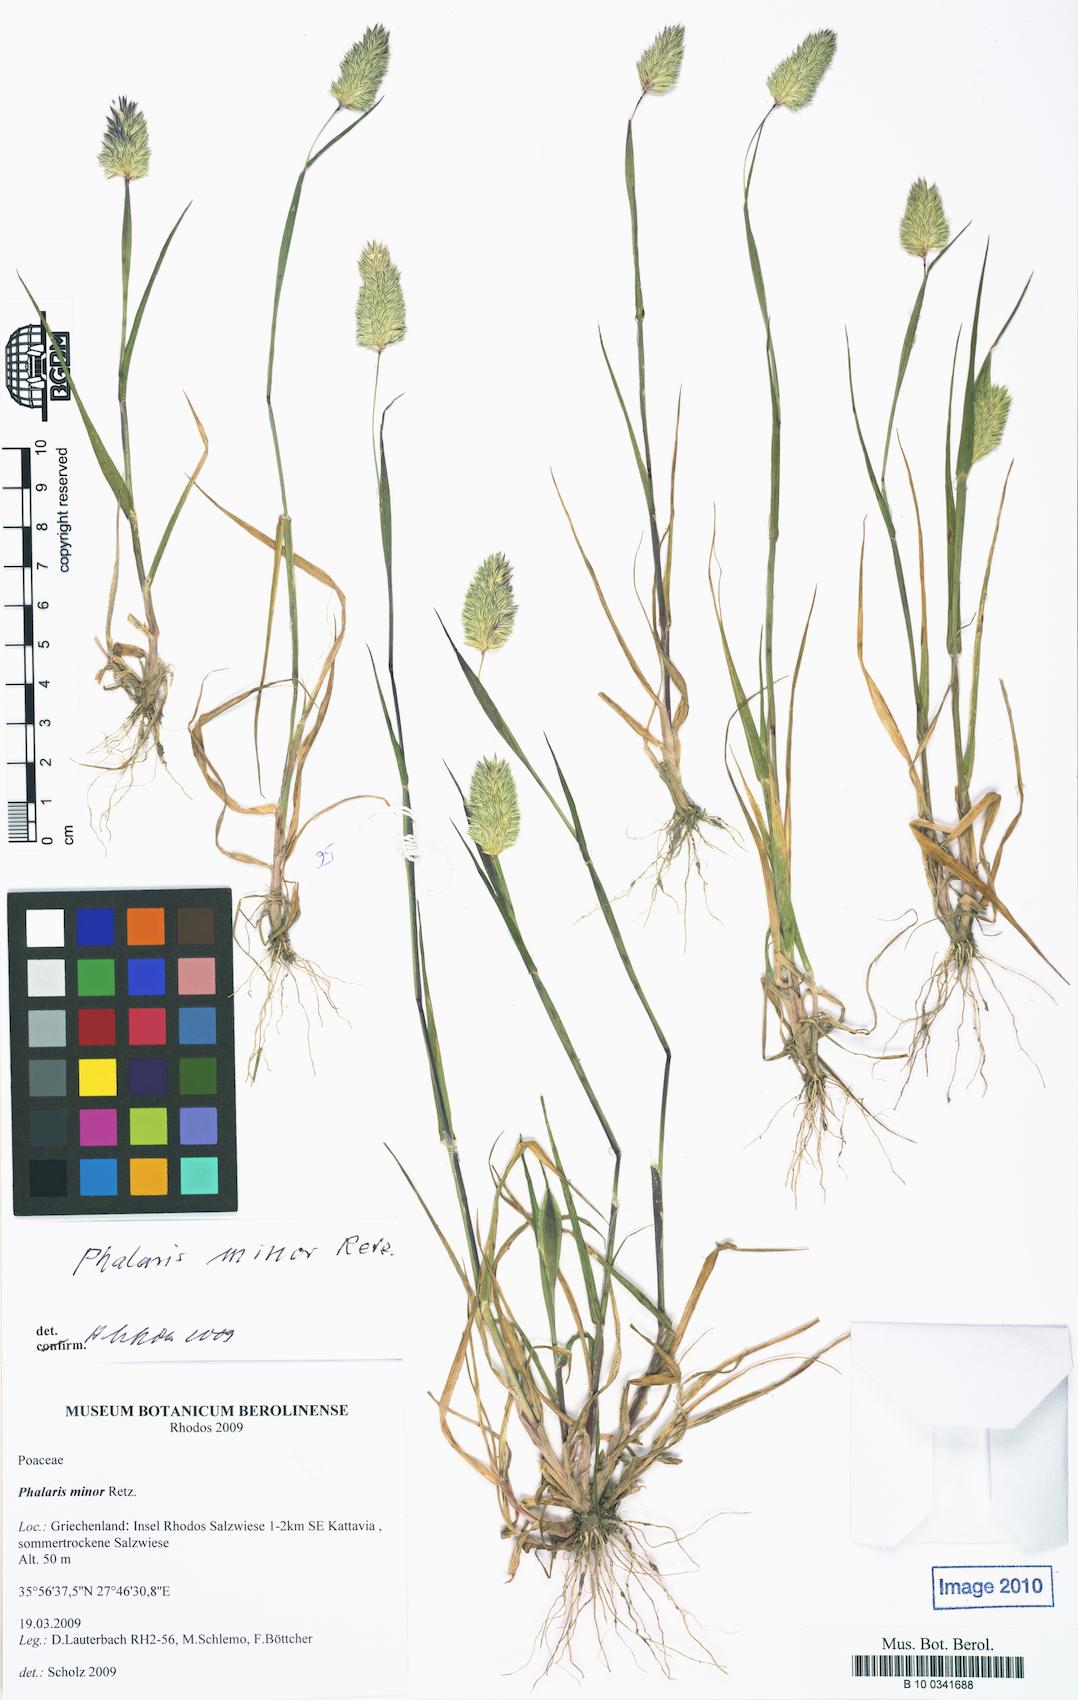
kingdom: Plantae
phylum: Tracheophyta
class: Liliopsida
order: Poales
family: Poaceae
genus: Phalaris
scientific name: Phalaris minor
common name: Littleseed canarygrass
